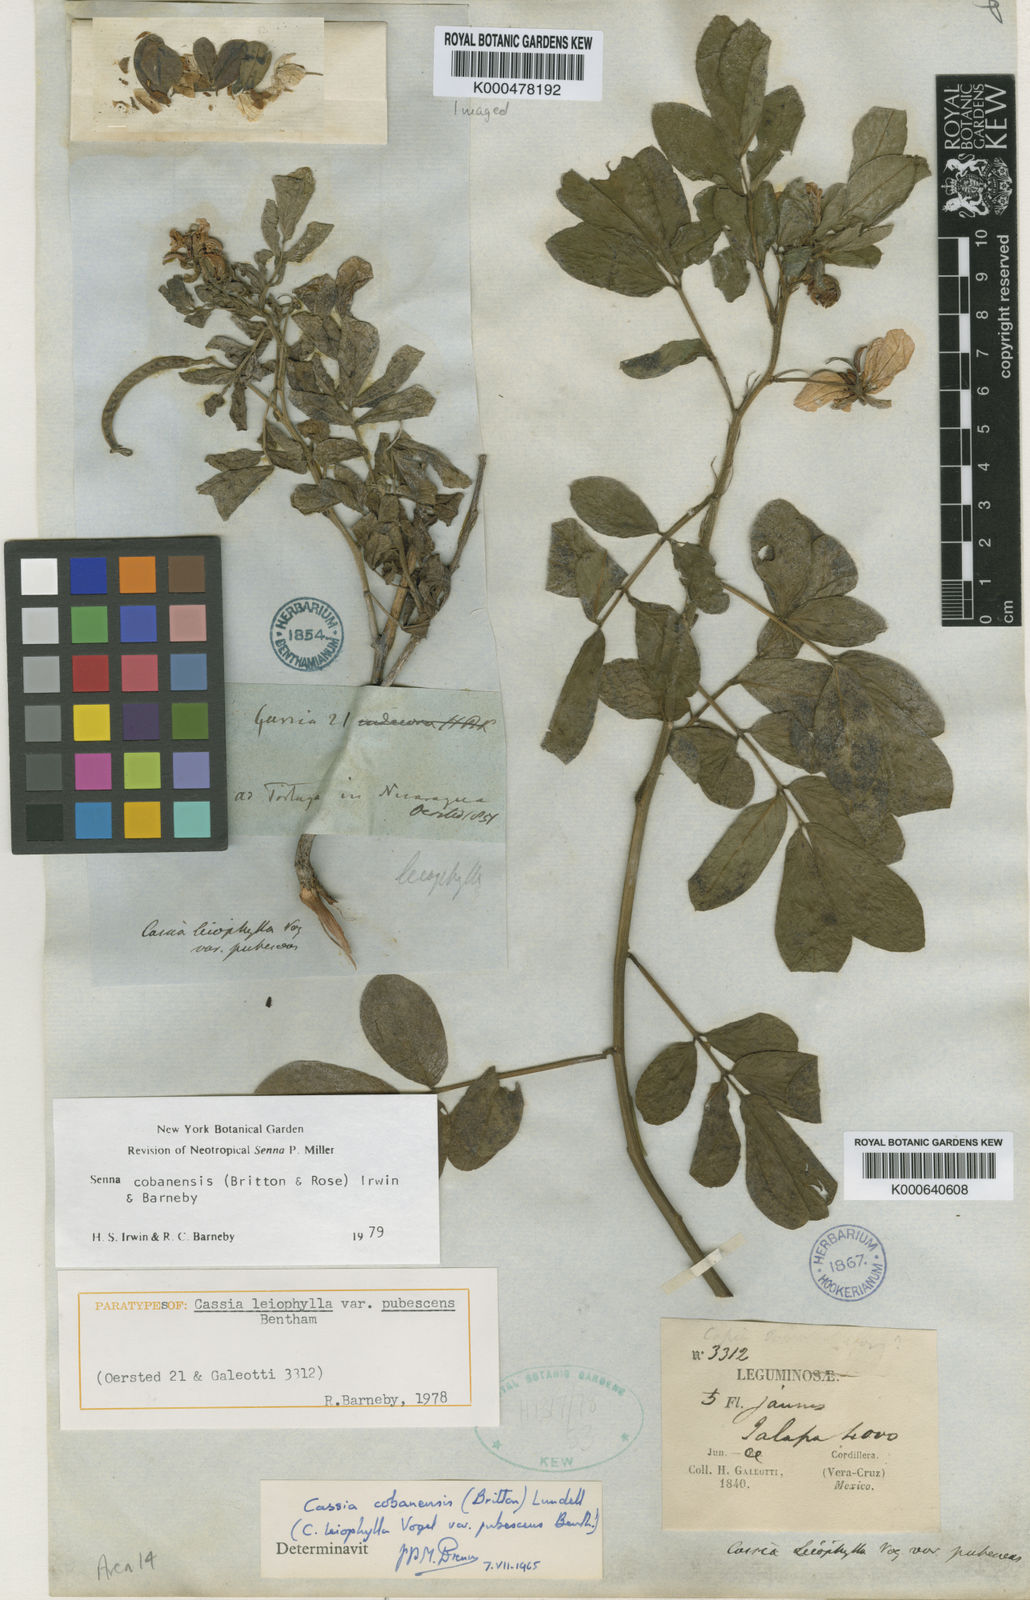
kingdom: Plantae
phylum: Tracheophyta
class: Magnoliopsida
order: Fabales
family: Fabaceae
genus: Senna
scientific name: Senna cobanensis
